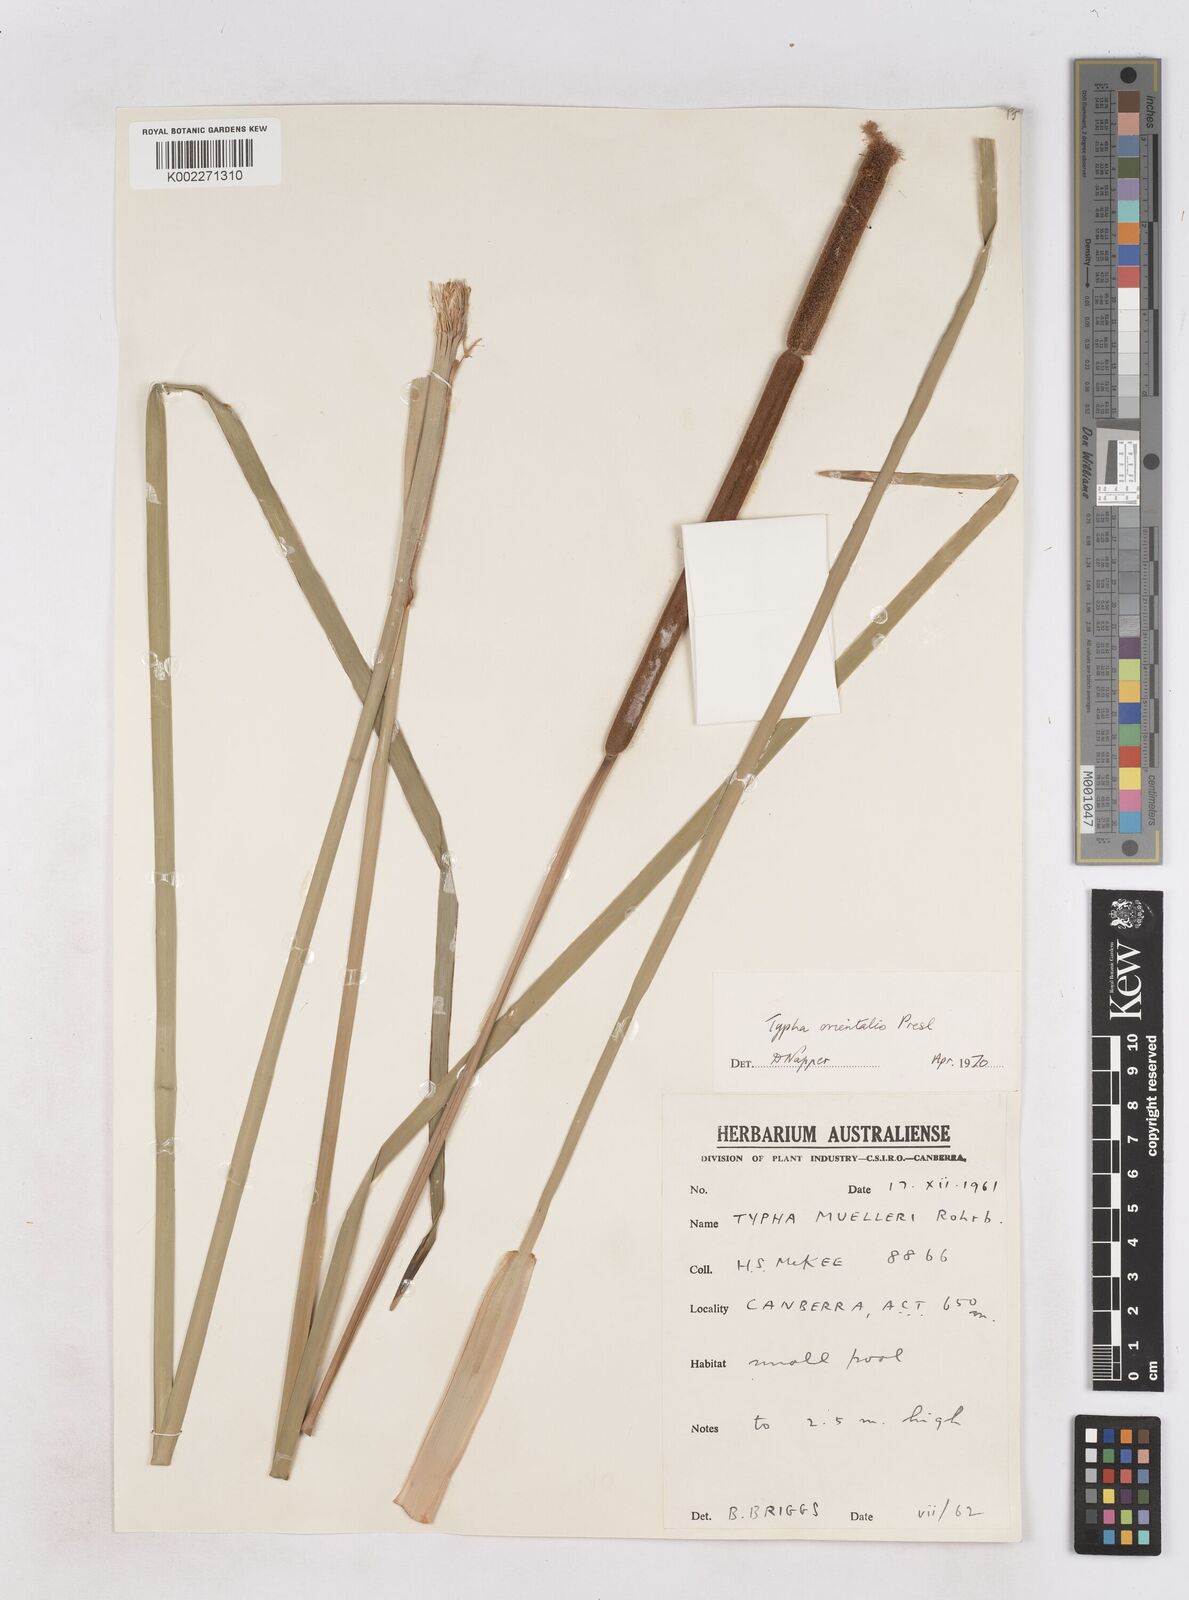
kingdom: Plantae
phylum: Tracheophyta
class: Liliopsida
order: Poales
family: Typhaceae
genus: Typha
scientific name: Typha orientalis
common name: Bullrush
